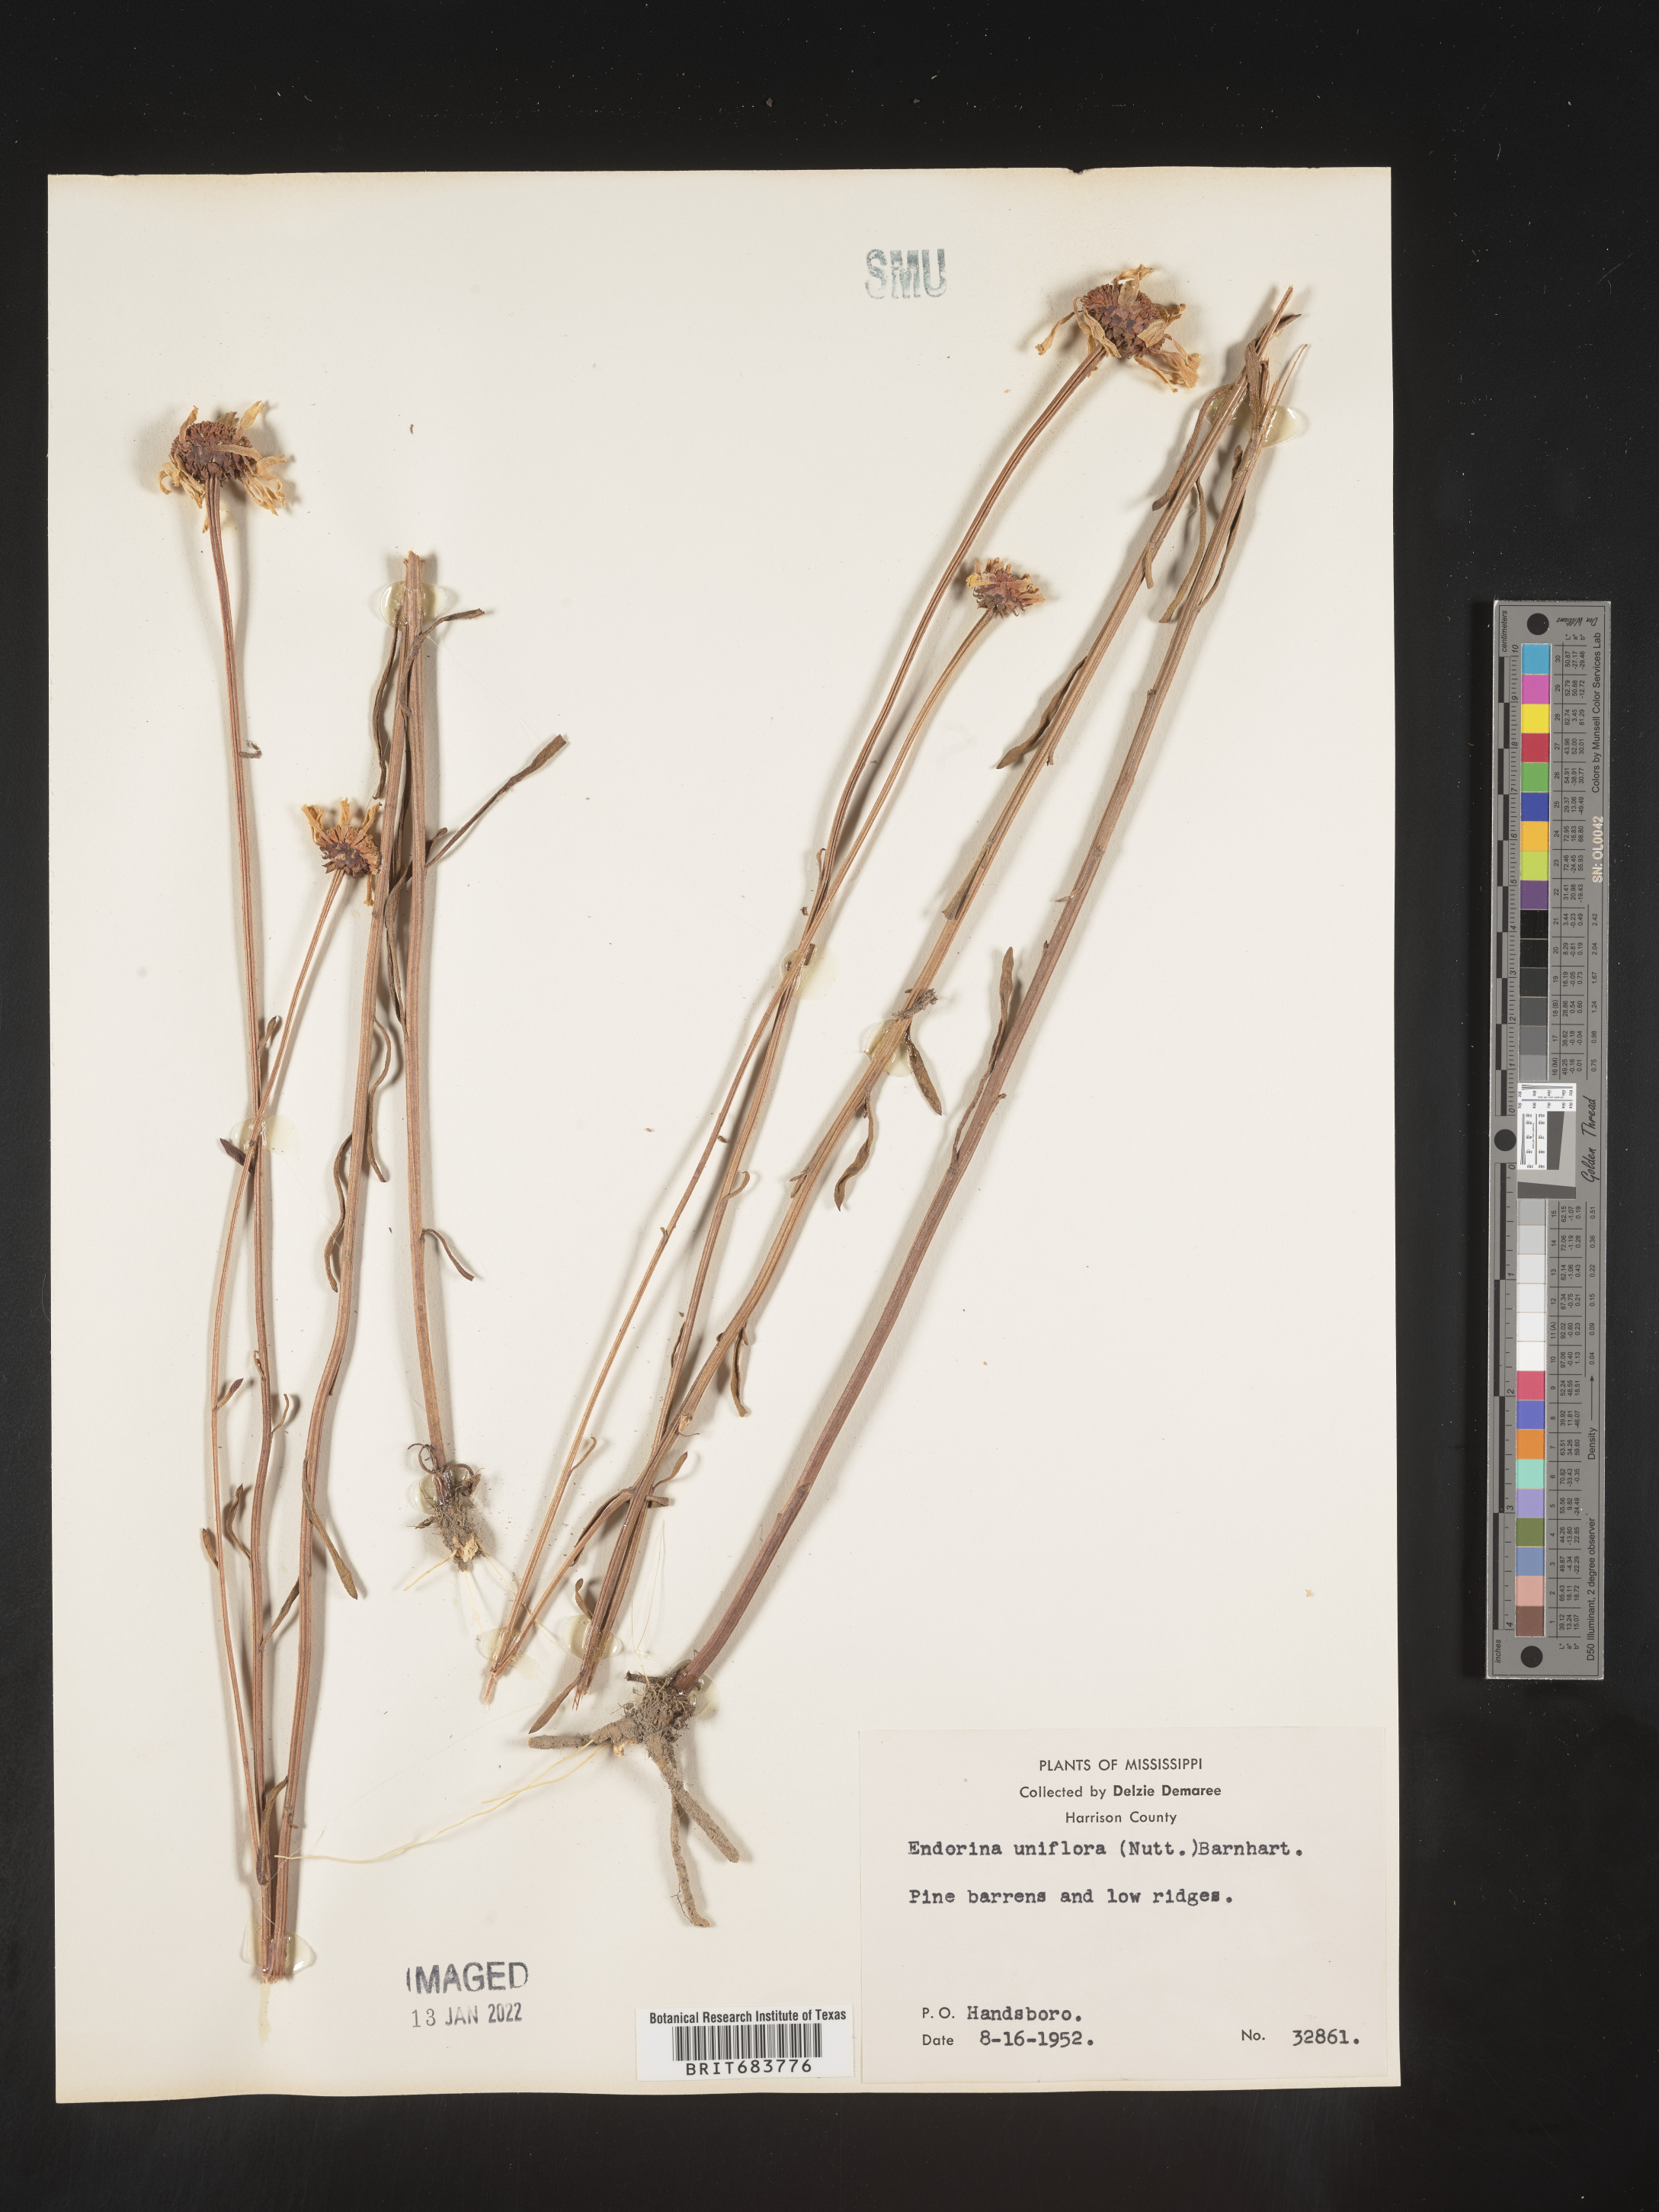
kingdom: Plantae
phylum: Tracheophyta
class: Magnoliopsida
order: Asterales
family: Asteraceae
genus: Balduina
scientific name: Balduina uniflora
